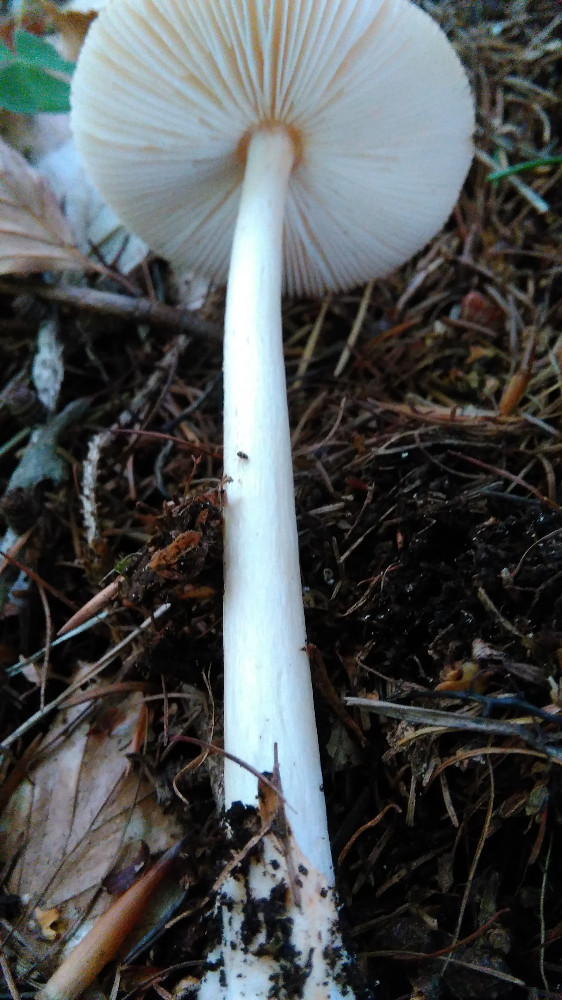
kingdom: Fungi
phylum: Basidiomycota
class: Agaricomycetes
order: Agaricales
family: Amanitaceae
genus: Amanita
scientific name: Amanita fulva
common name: brun kam-fluesvamp
